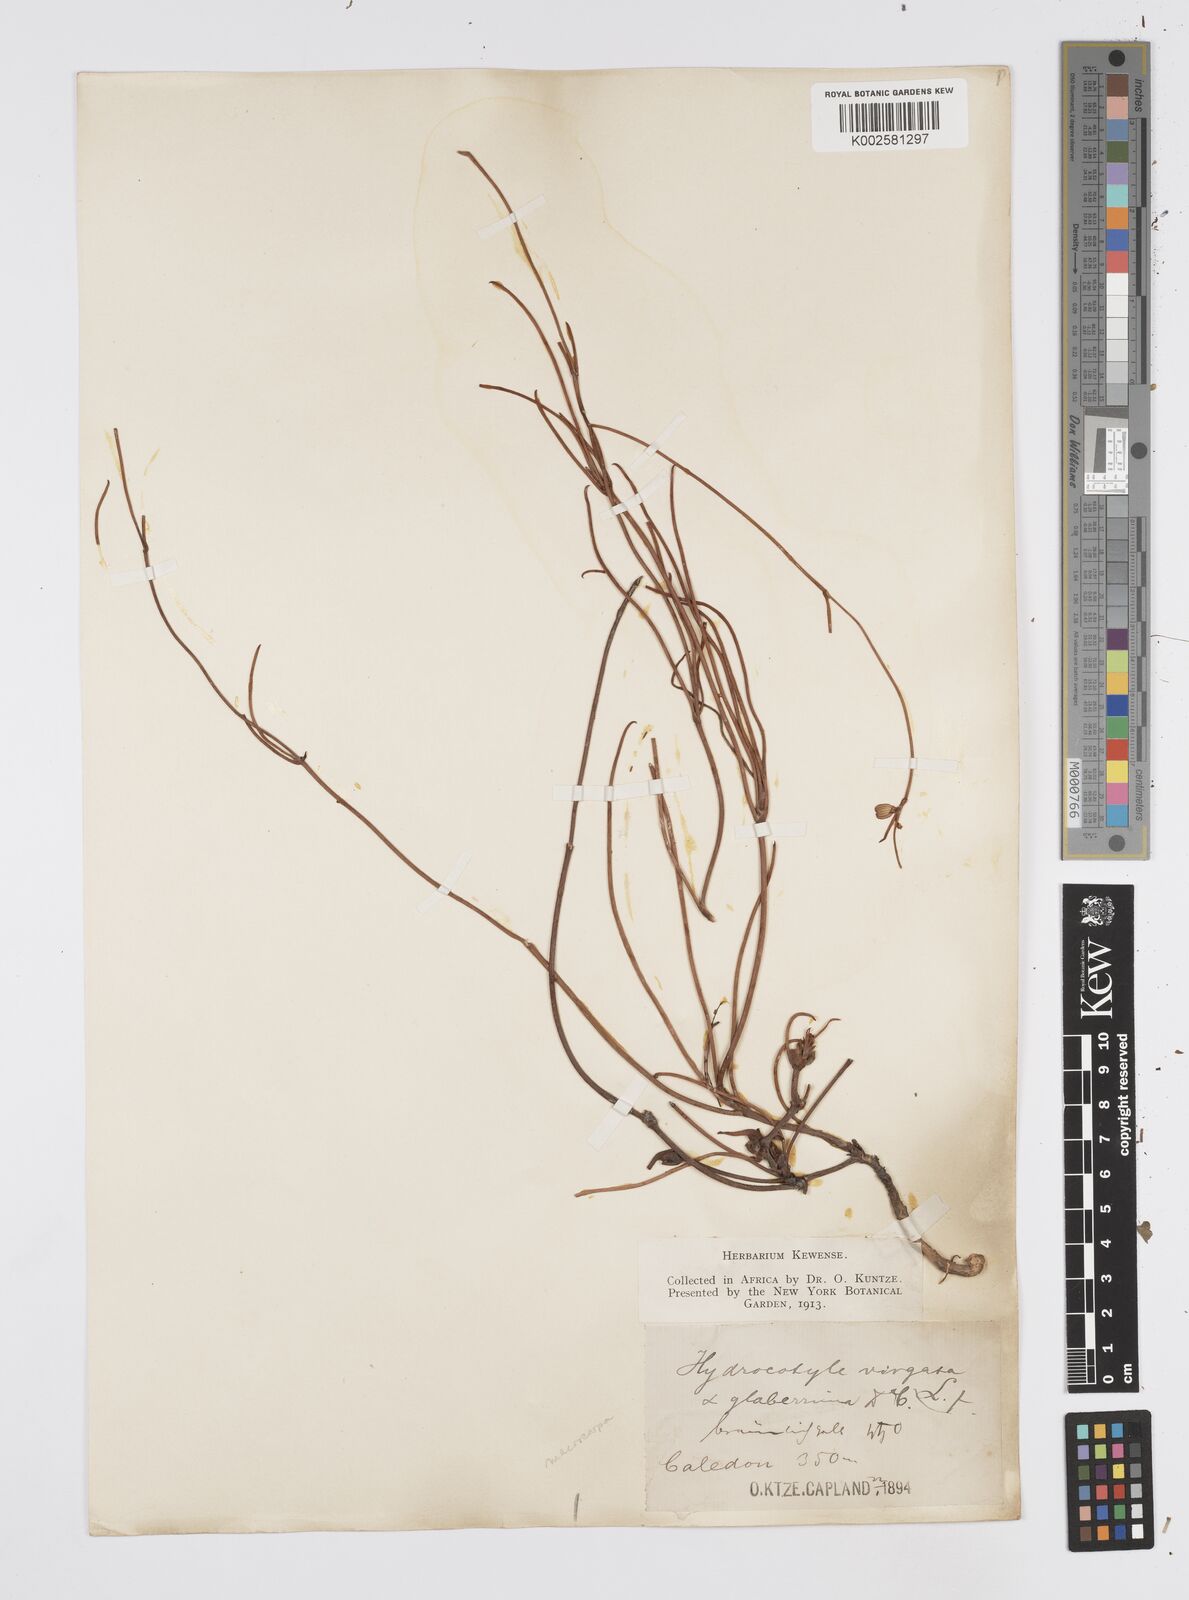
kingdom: Plantae
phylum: Tracheophyta
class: Magnoliopsida
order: Apiales
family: Apiaceae
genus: Centella
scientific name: Centella macrocarpa
